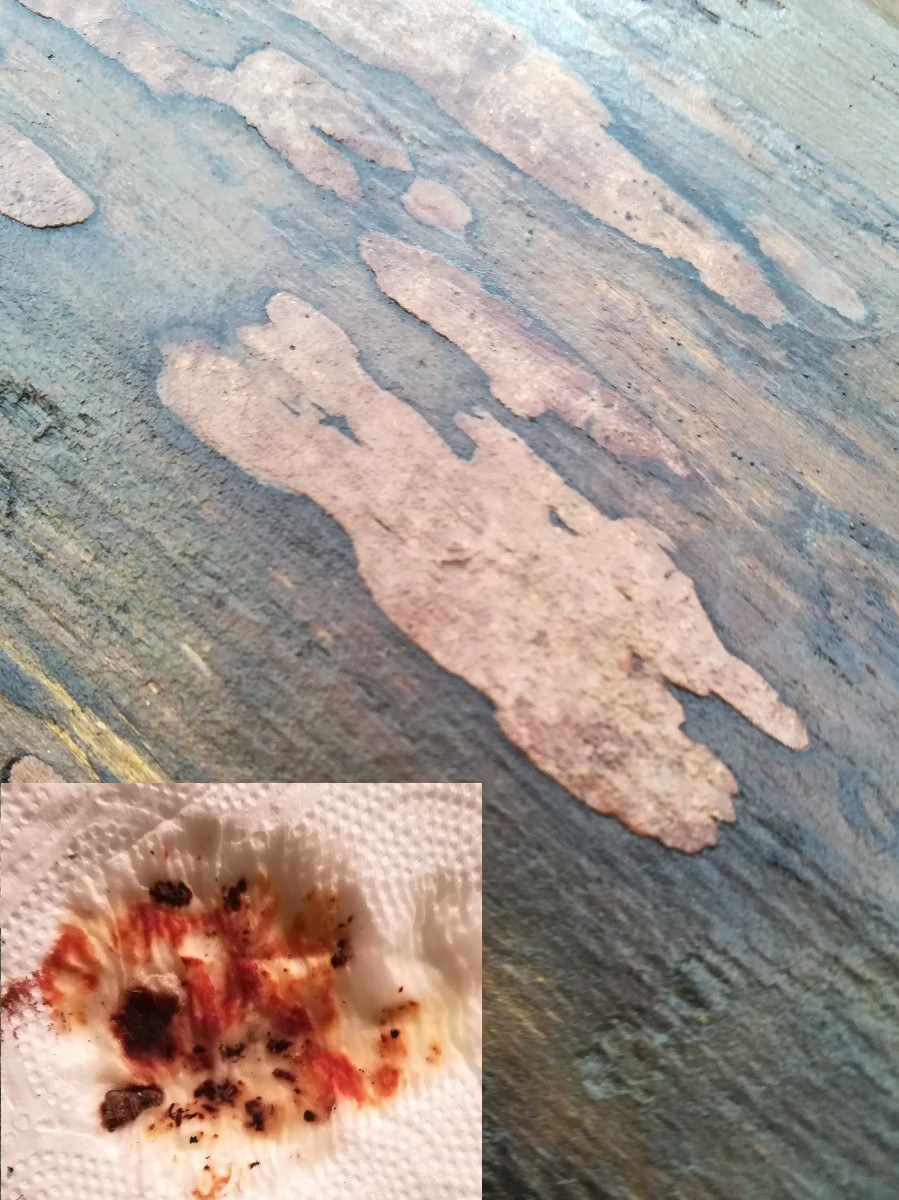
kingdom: Fungi
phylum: Ascomycota
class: Sordariomycetes
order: Xylariales
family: Hypoxylaceae
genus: Hypoxylon
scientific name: Hypoxylon petriniae
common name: nedsænket kulbær
